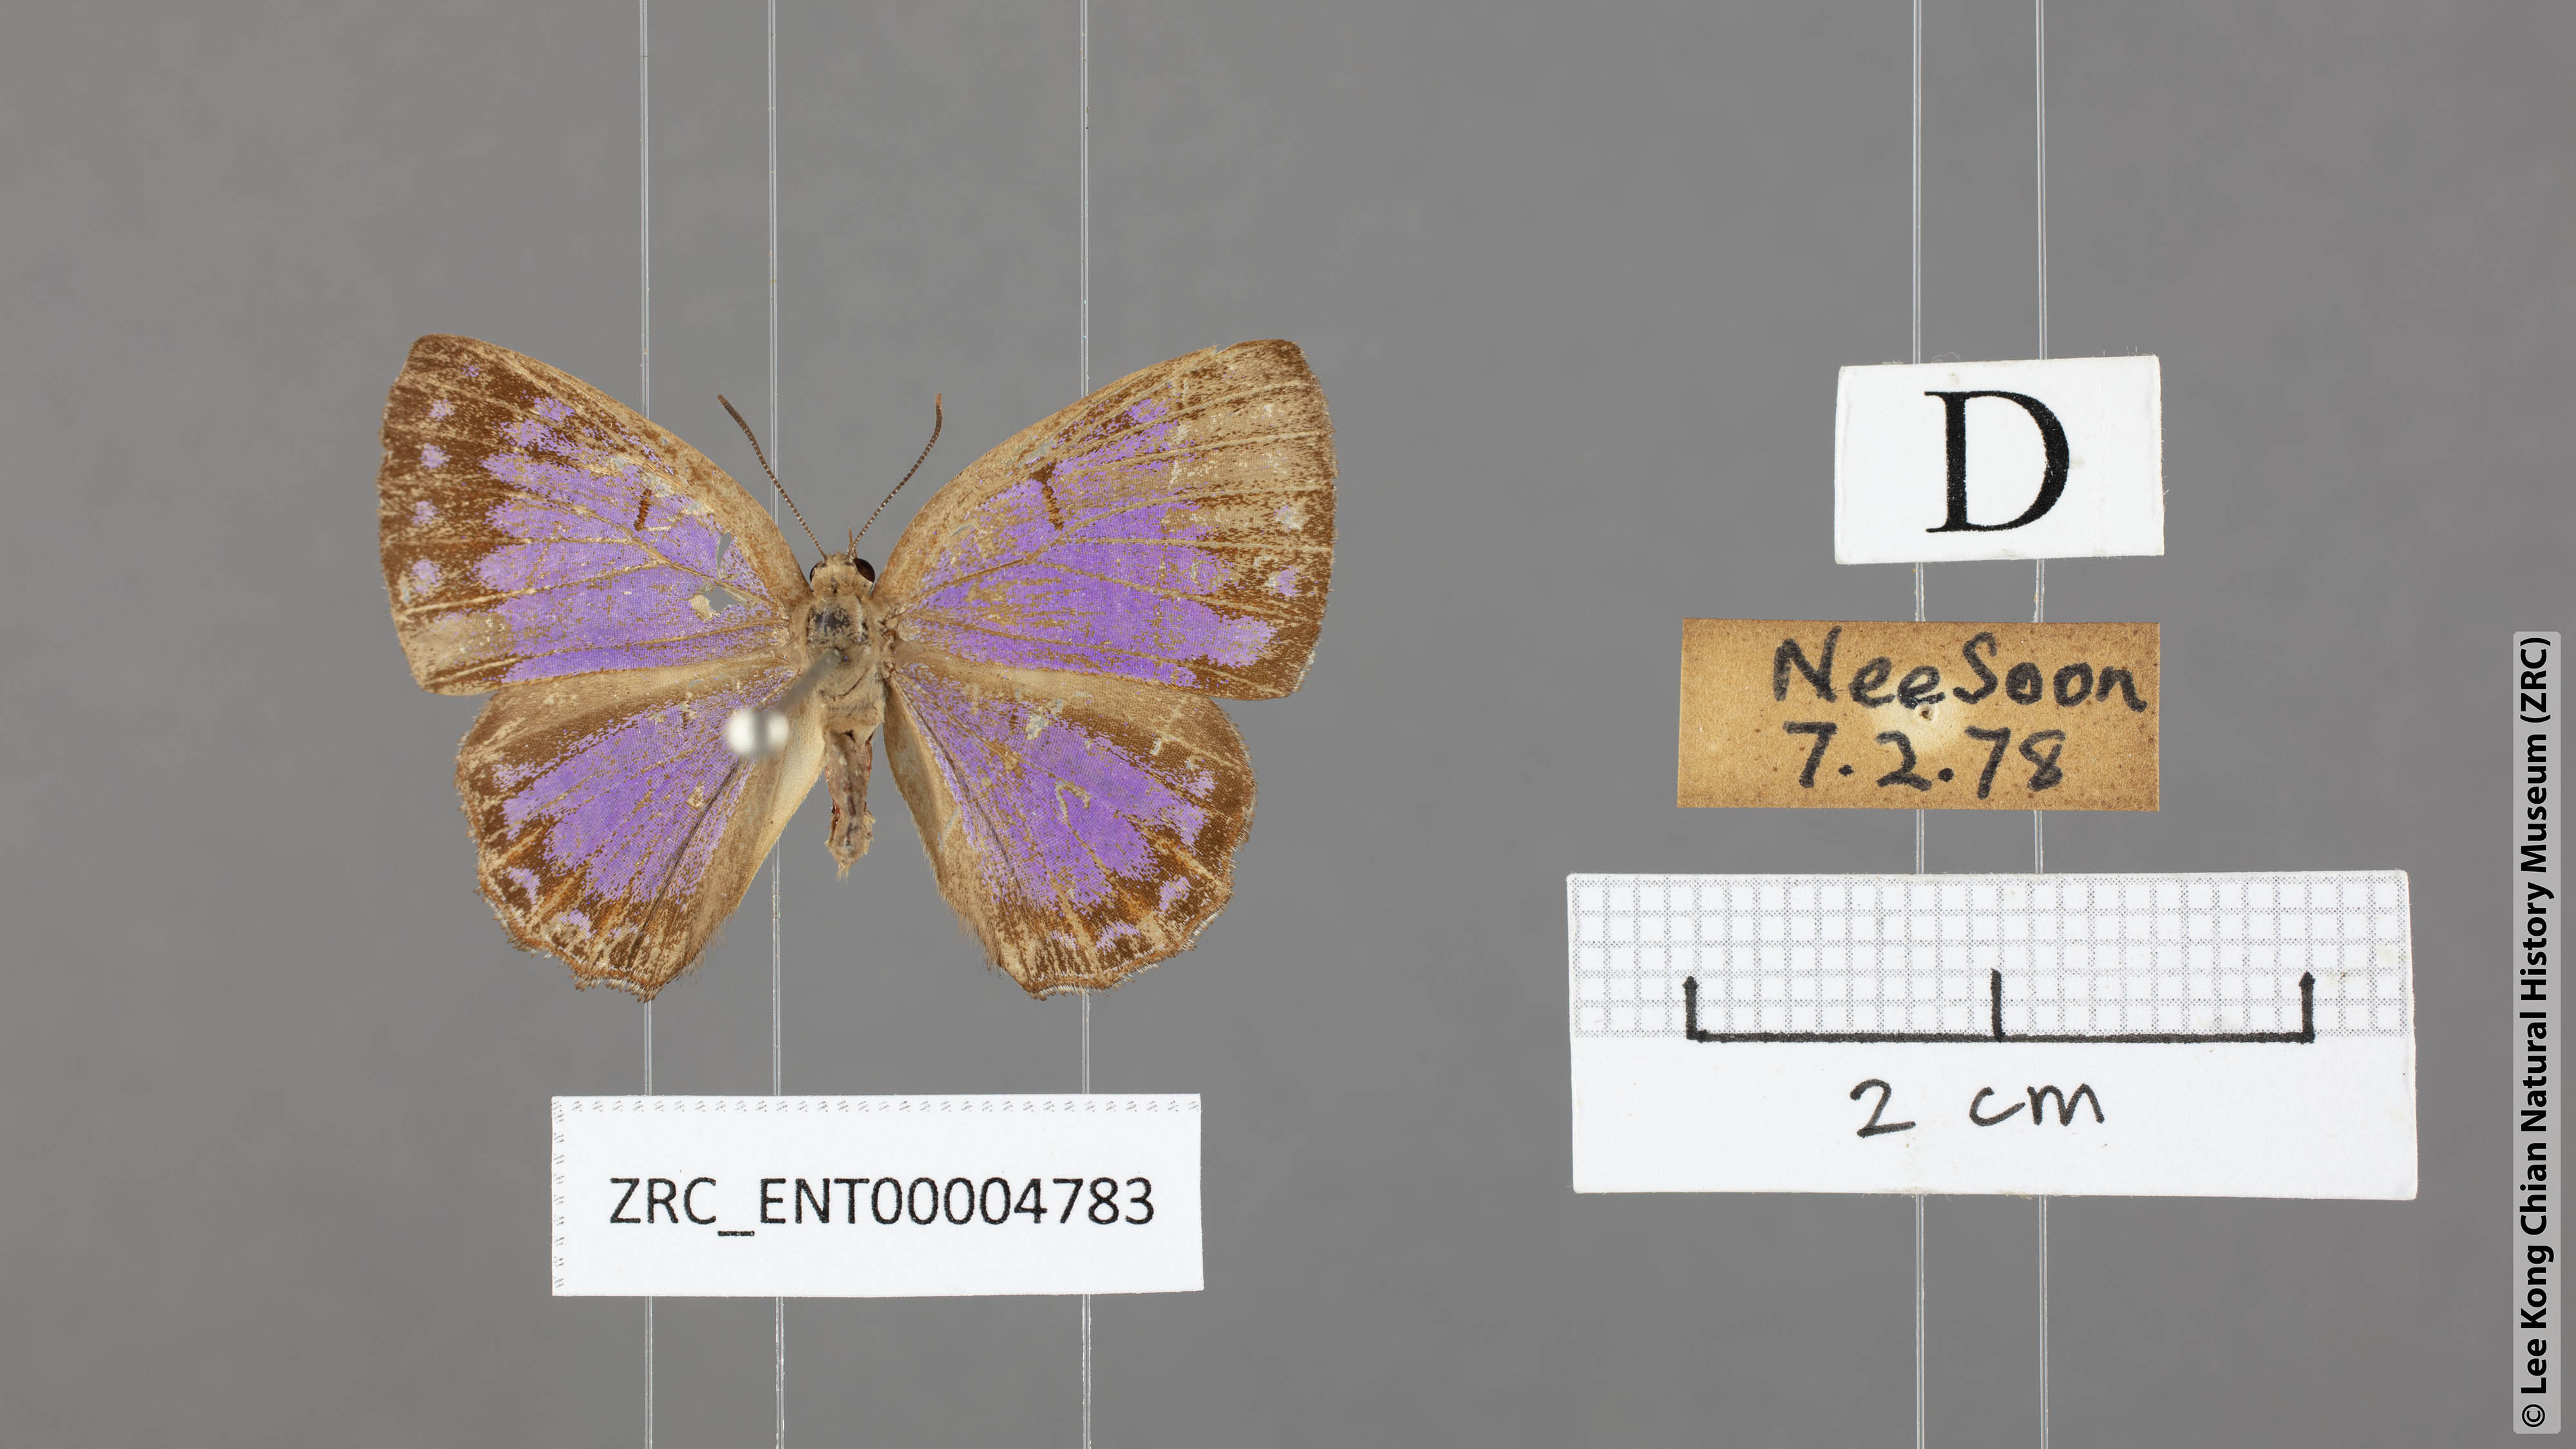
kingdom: Animalia
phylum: Arthropoda
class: Insecta
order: Lepidoptera
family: Lycaenidae
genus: Poritia
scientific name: Poritia sumatrae
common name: Sumatran gem
